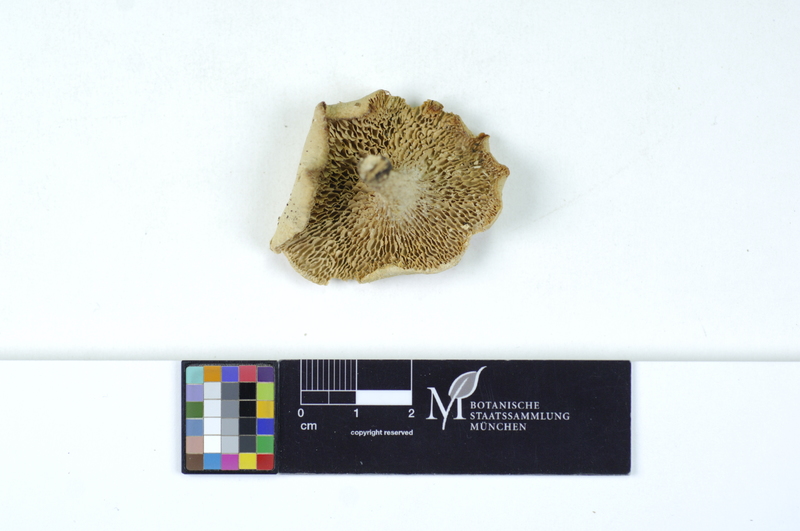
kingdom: Plantae
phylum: Tracheophyta
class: Magnoliopsida
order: Lamiales
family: Oleaceae
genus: Fraxinus
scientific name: Fraxinus
